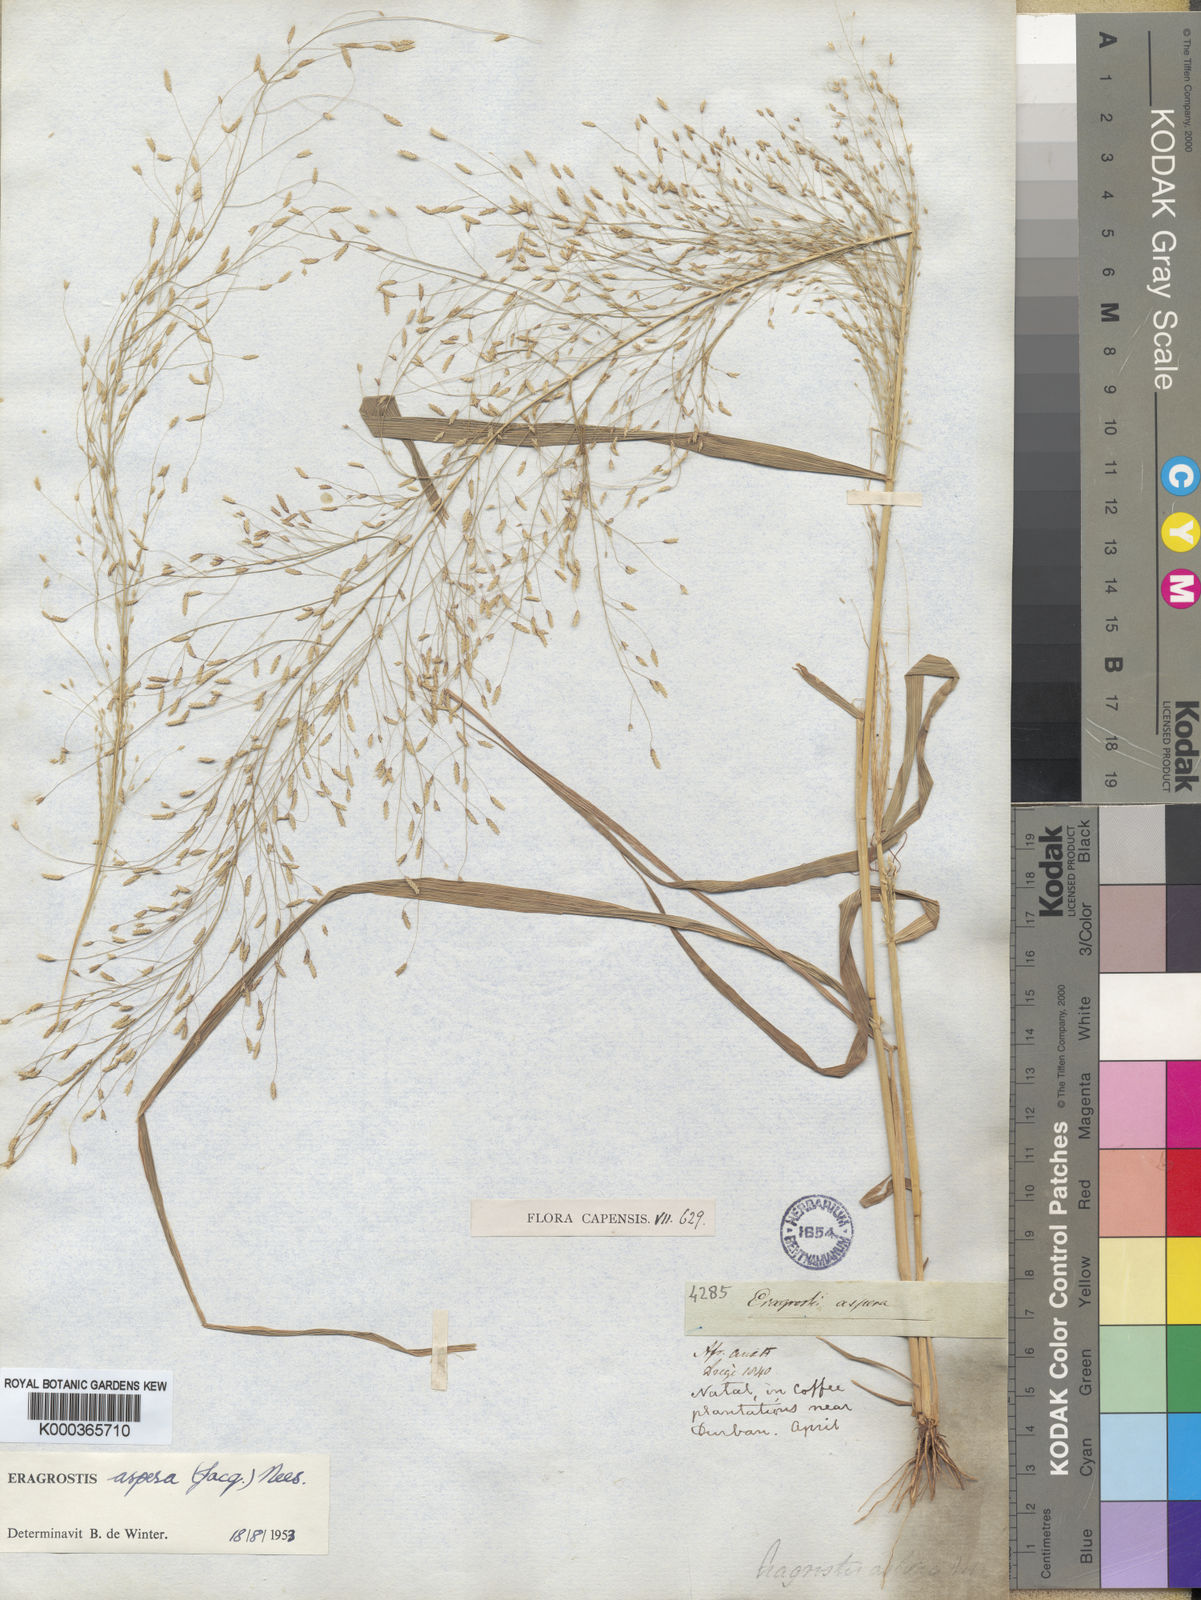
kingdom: Plantae
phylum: Tracheophyta
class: Liliopsida
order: Poales
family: Poaceae
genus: Eragrostis
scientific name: Eragrostis aspera
